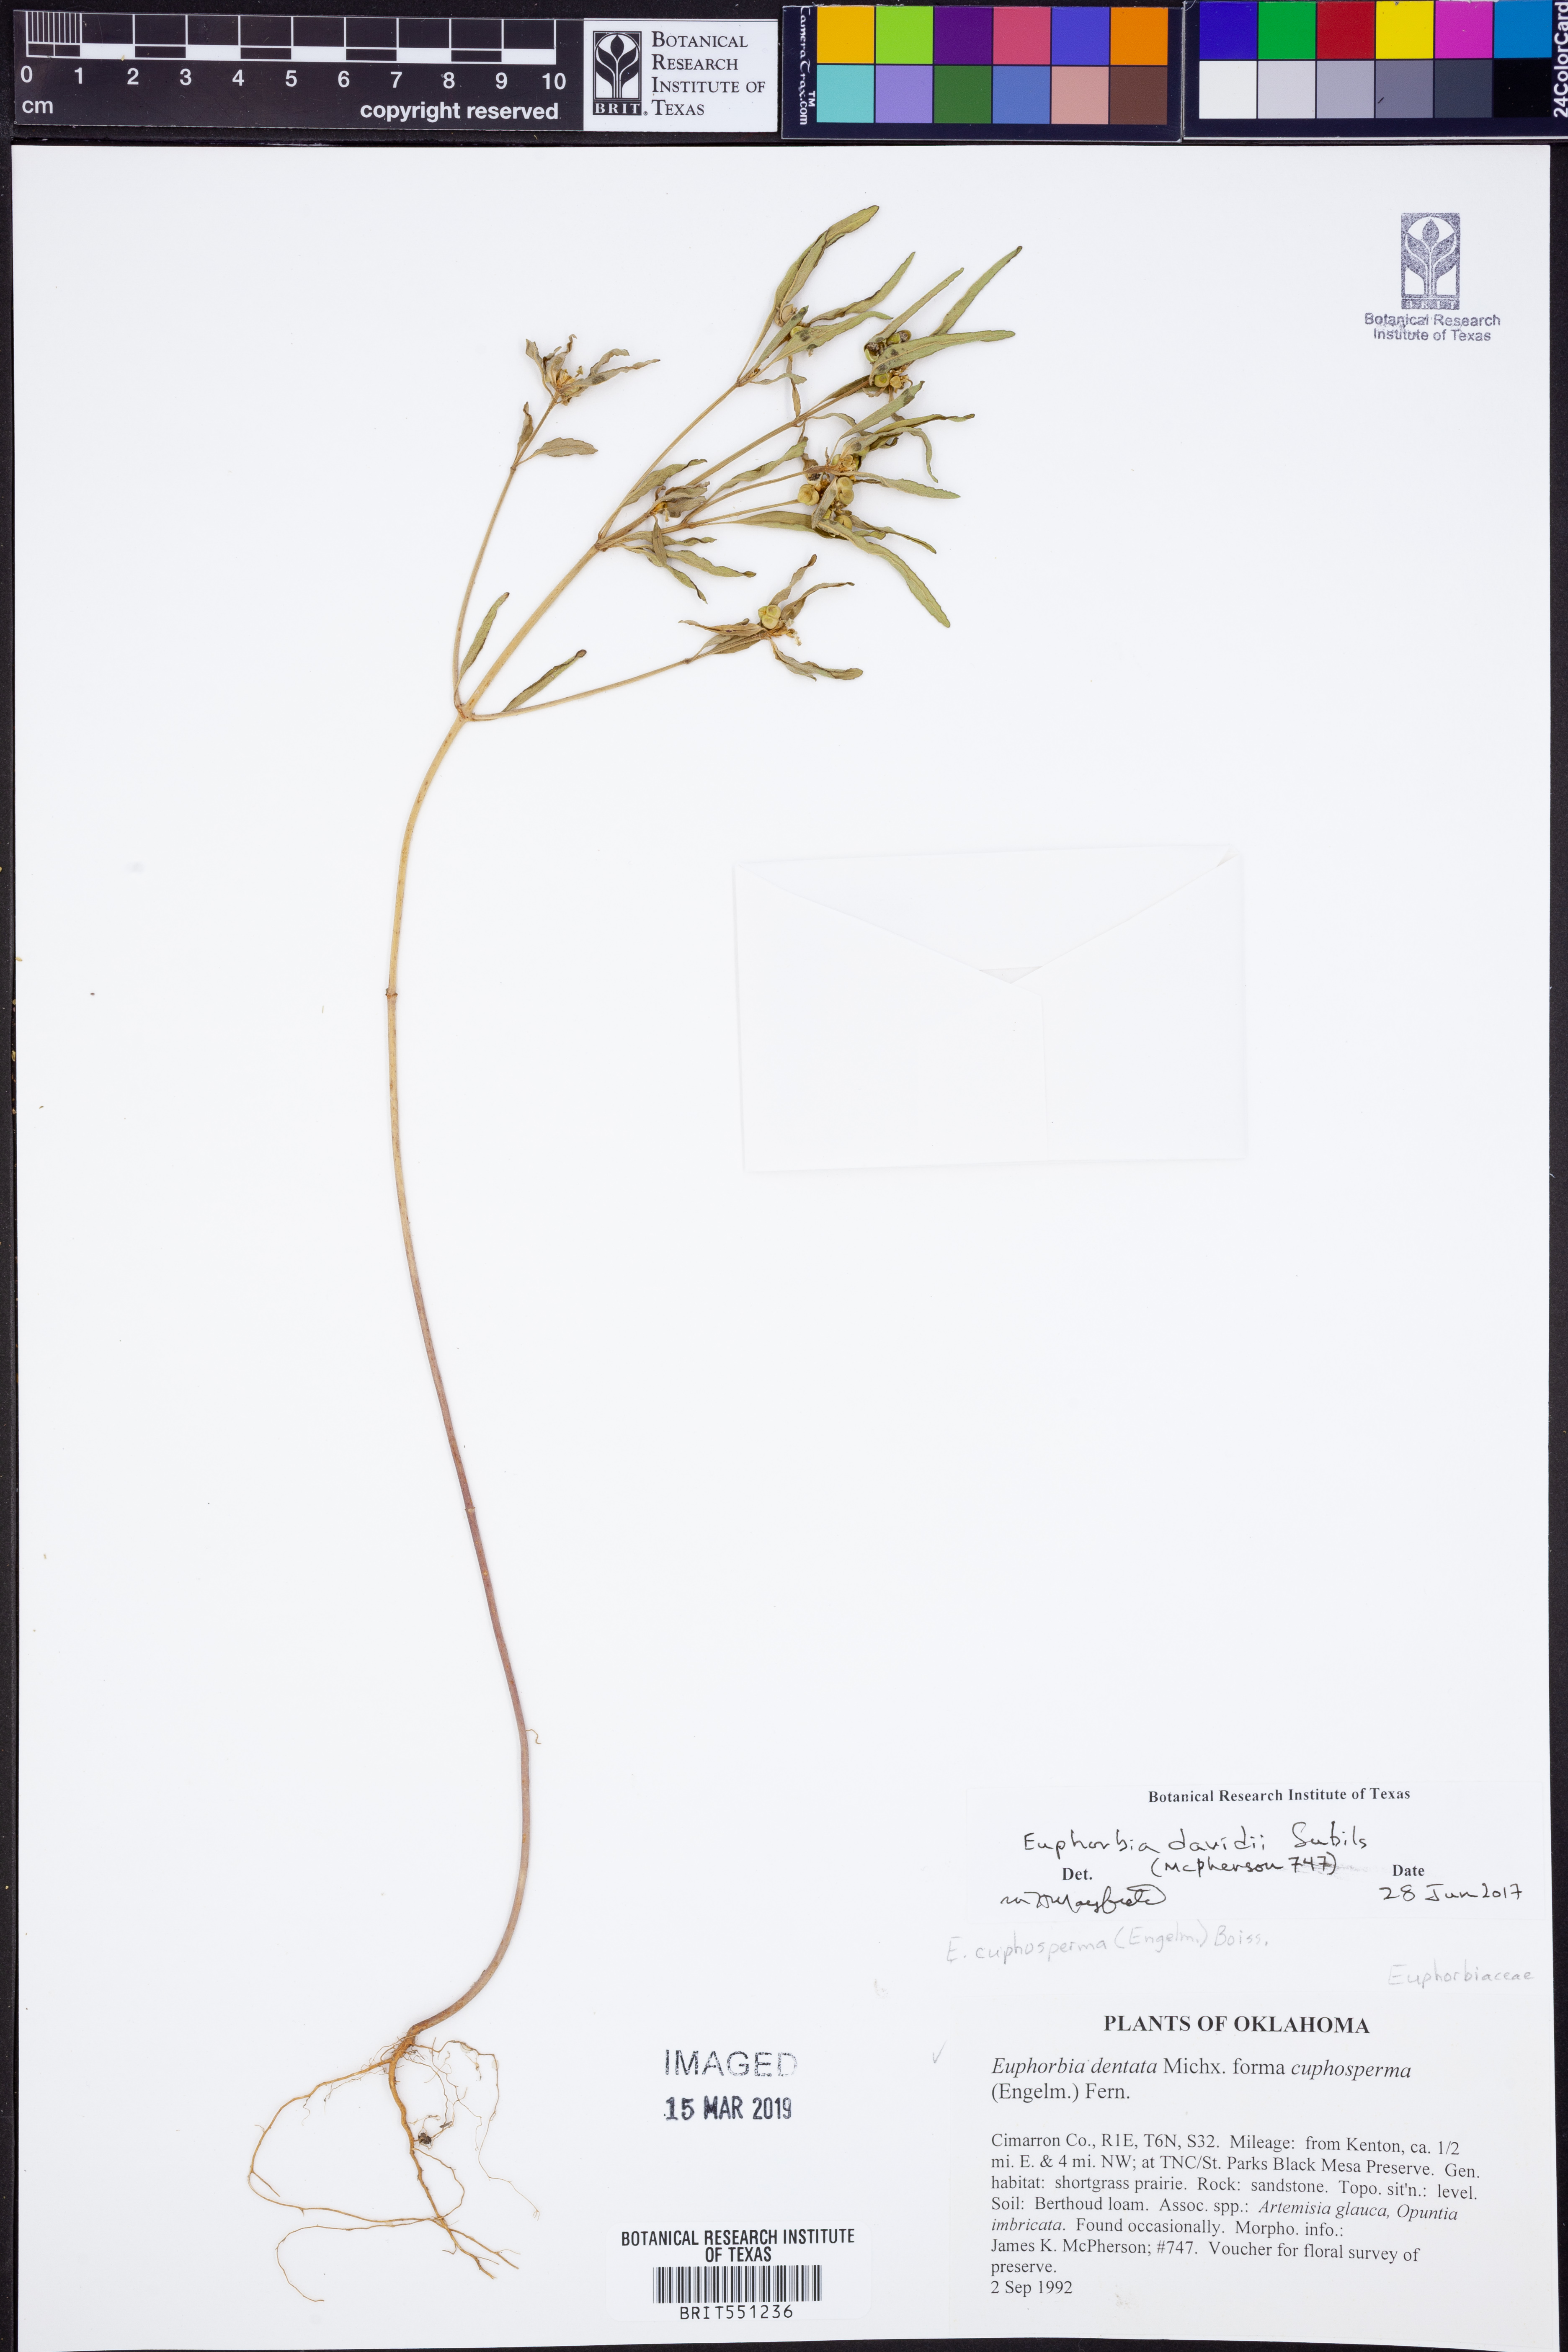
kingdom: Plantae
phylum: Tracheophyta
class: Magnoliopsida
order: Malpighiales
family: Euphorbiaceae
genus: Euphorbia
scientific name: Euphorbia davidii
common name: David's spurge
